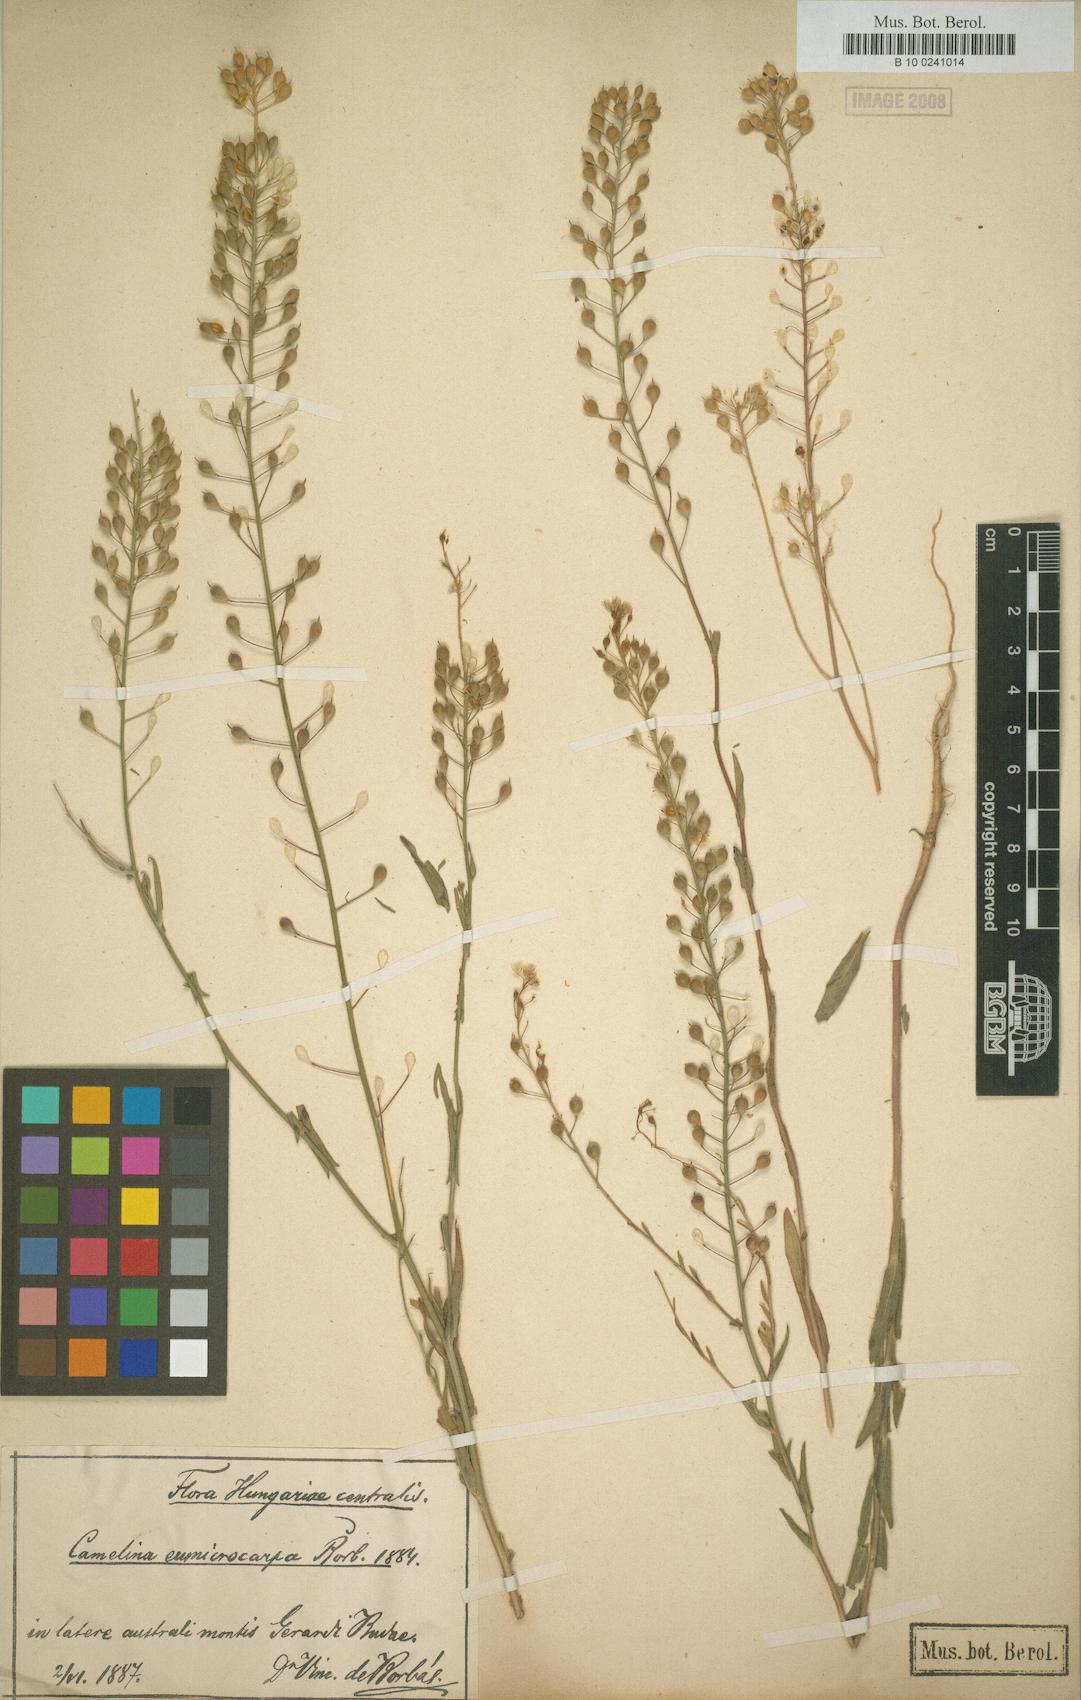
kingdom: Plantae
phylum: Tracheophyta
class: Magnoliopsida
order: Brassicales
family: Brassicaceae
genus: Camelina
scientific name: Camelina
